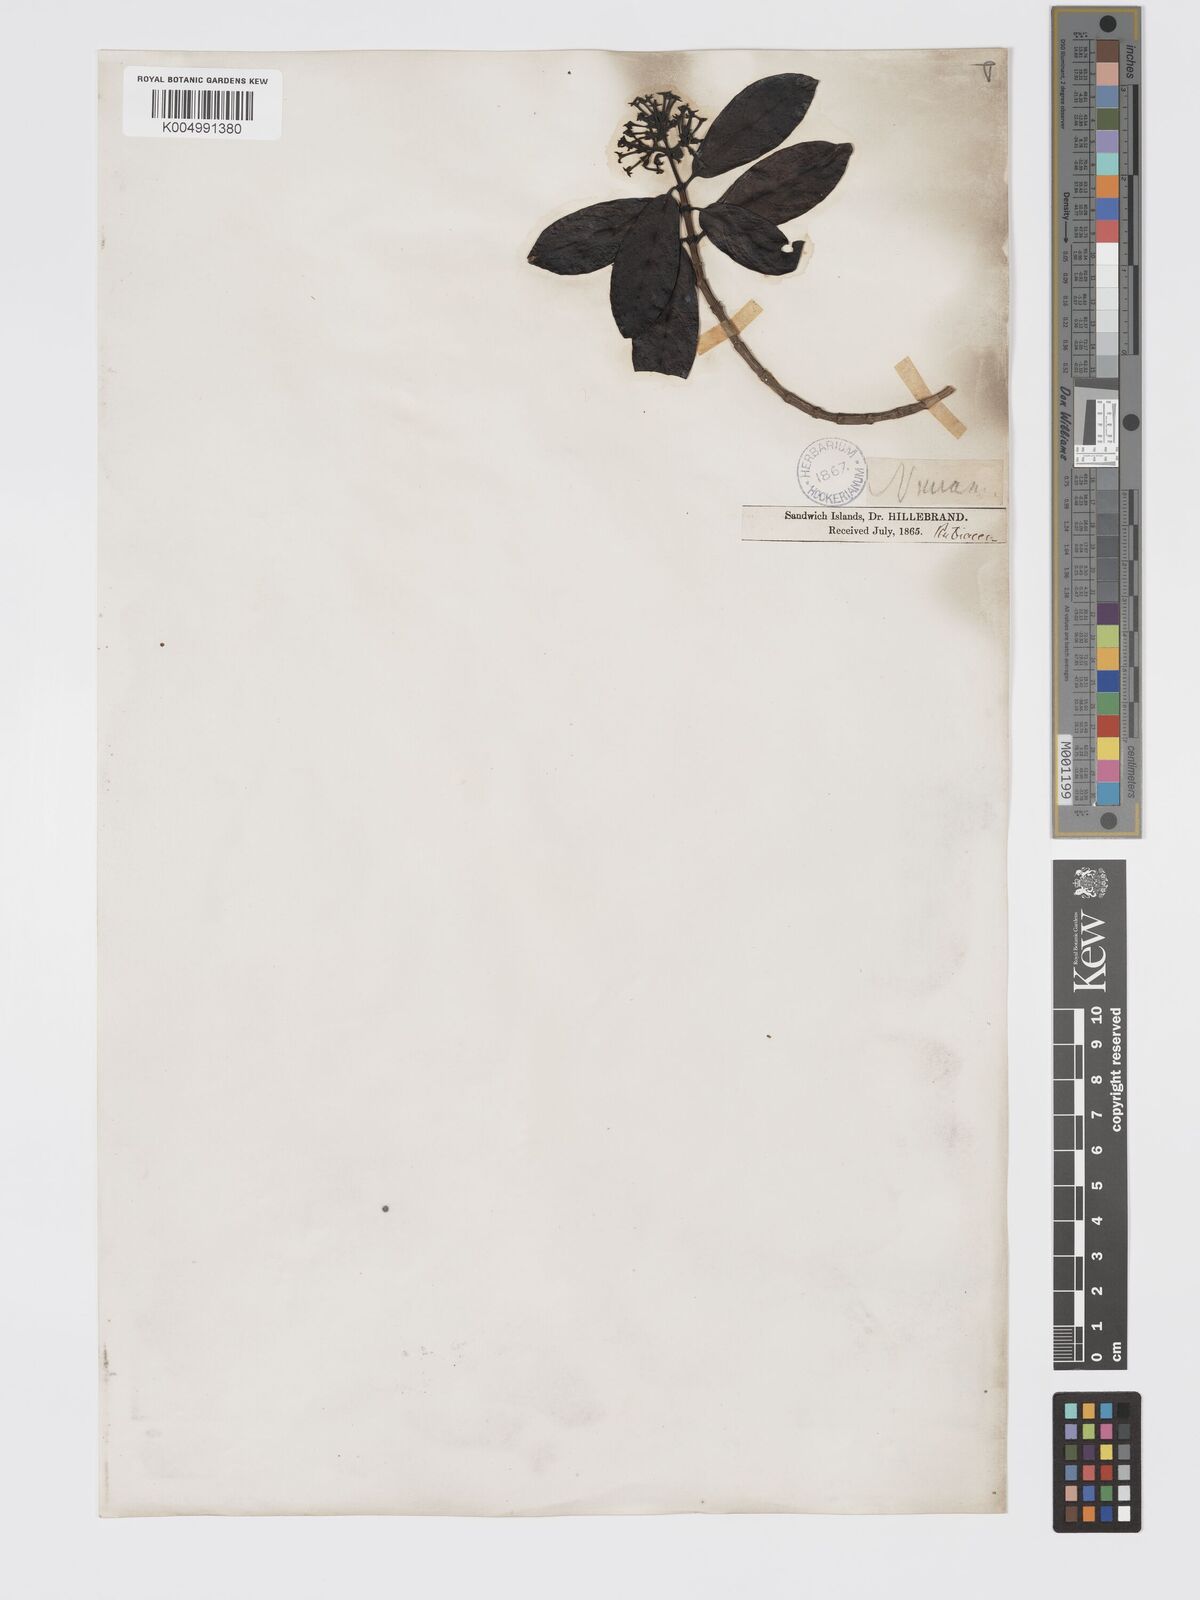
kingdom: Plantae
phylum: Tracheophyta
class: Magnoliopsida
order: Gentianales
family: Rubiaceae
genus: Kadua
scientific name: Kadua affinis
